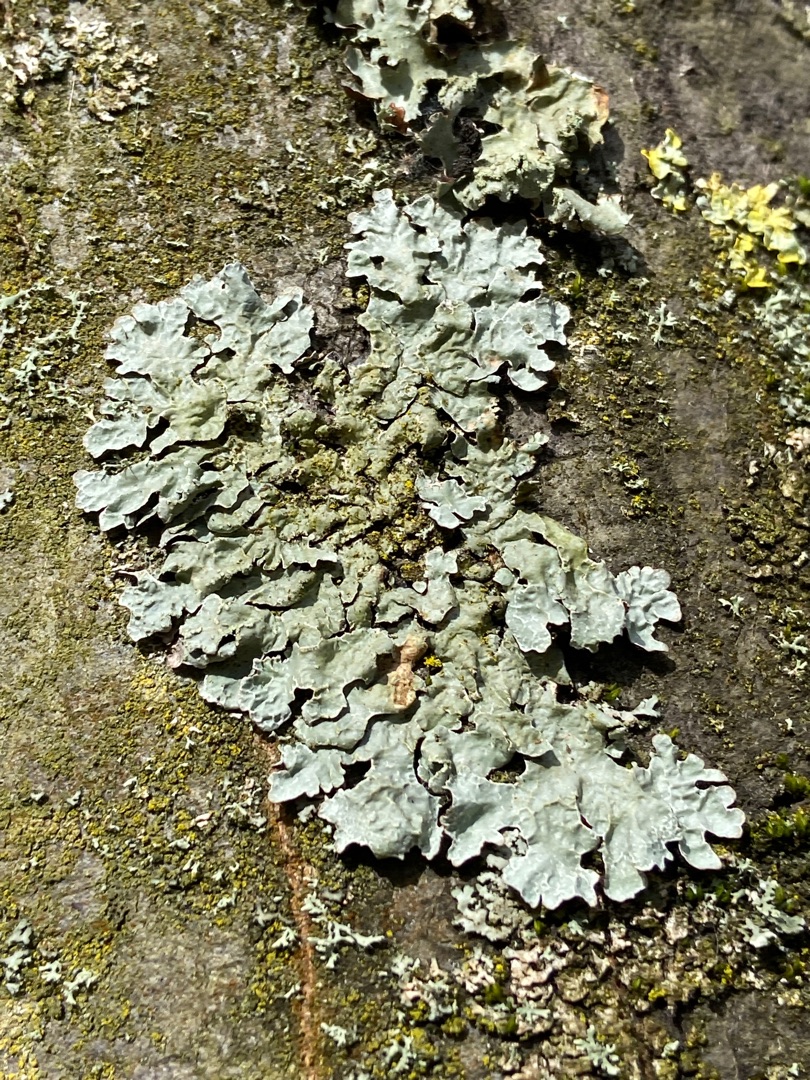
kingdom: Fungi
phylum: Ascomycota
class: Lecanoromycetes
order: Lecanorales
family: Parmeliaceae
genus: Parmelia
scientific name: Parmelia sulcata
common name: Rynket skållav
